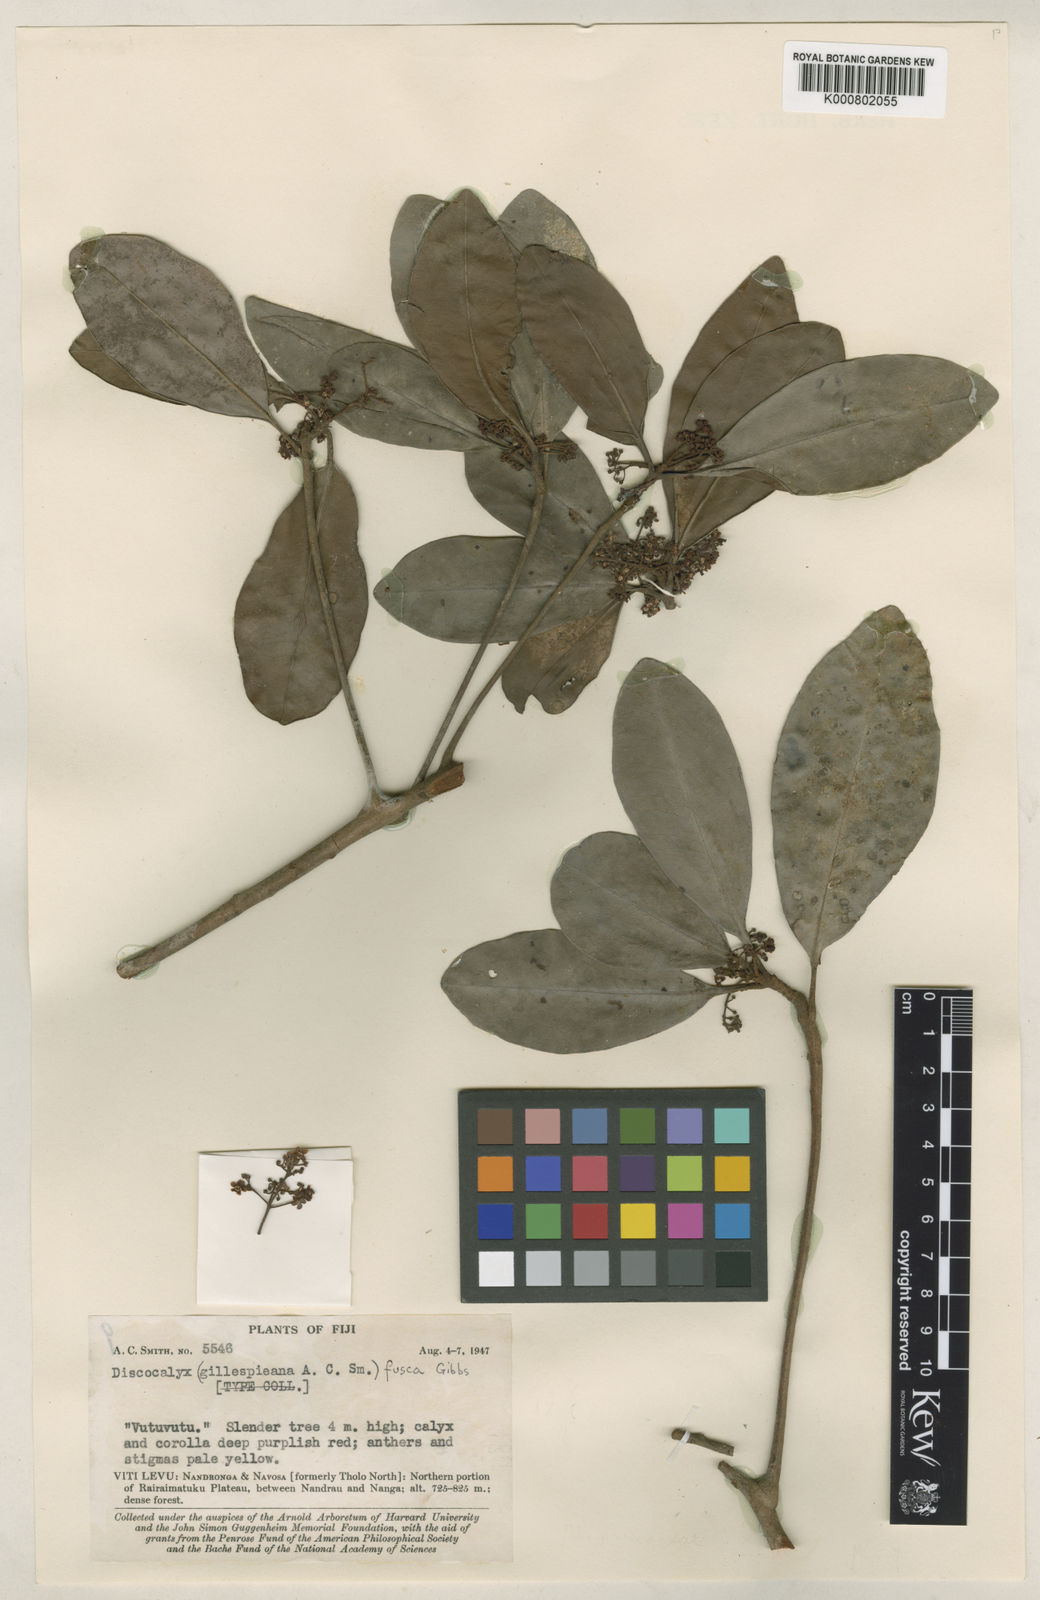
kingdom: Plantae
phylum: Tracheophyta
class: Magnoliopsida
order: Ericales
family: Primulaceae
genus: Discocalyx
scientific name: Discocalyx fusca
